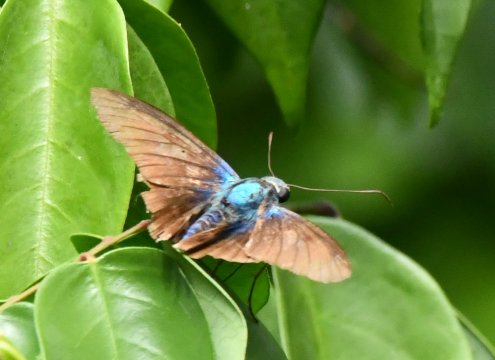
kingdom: Animalia
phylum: Arthropoda
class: Insecta
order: Lepidoptera
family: Hesperiidae
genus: Astraptes
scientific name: Astraptes alector
